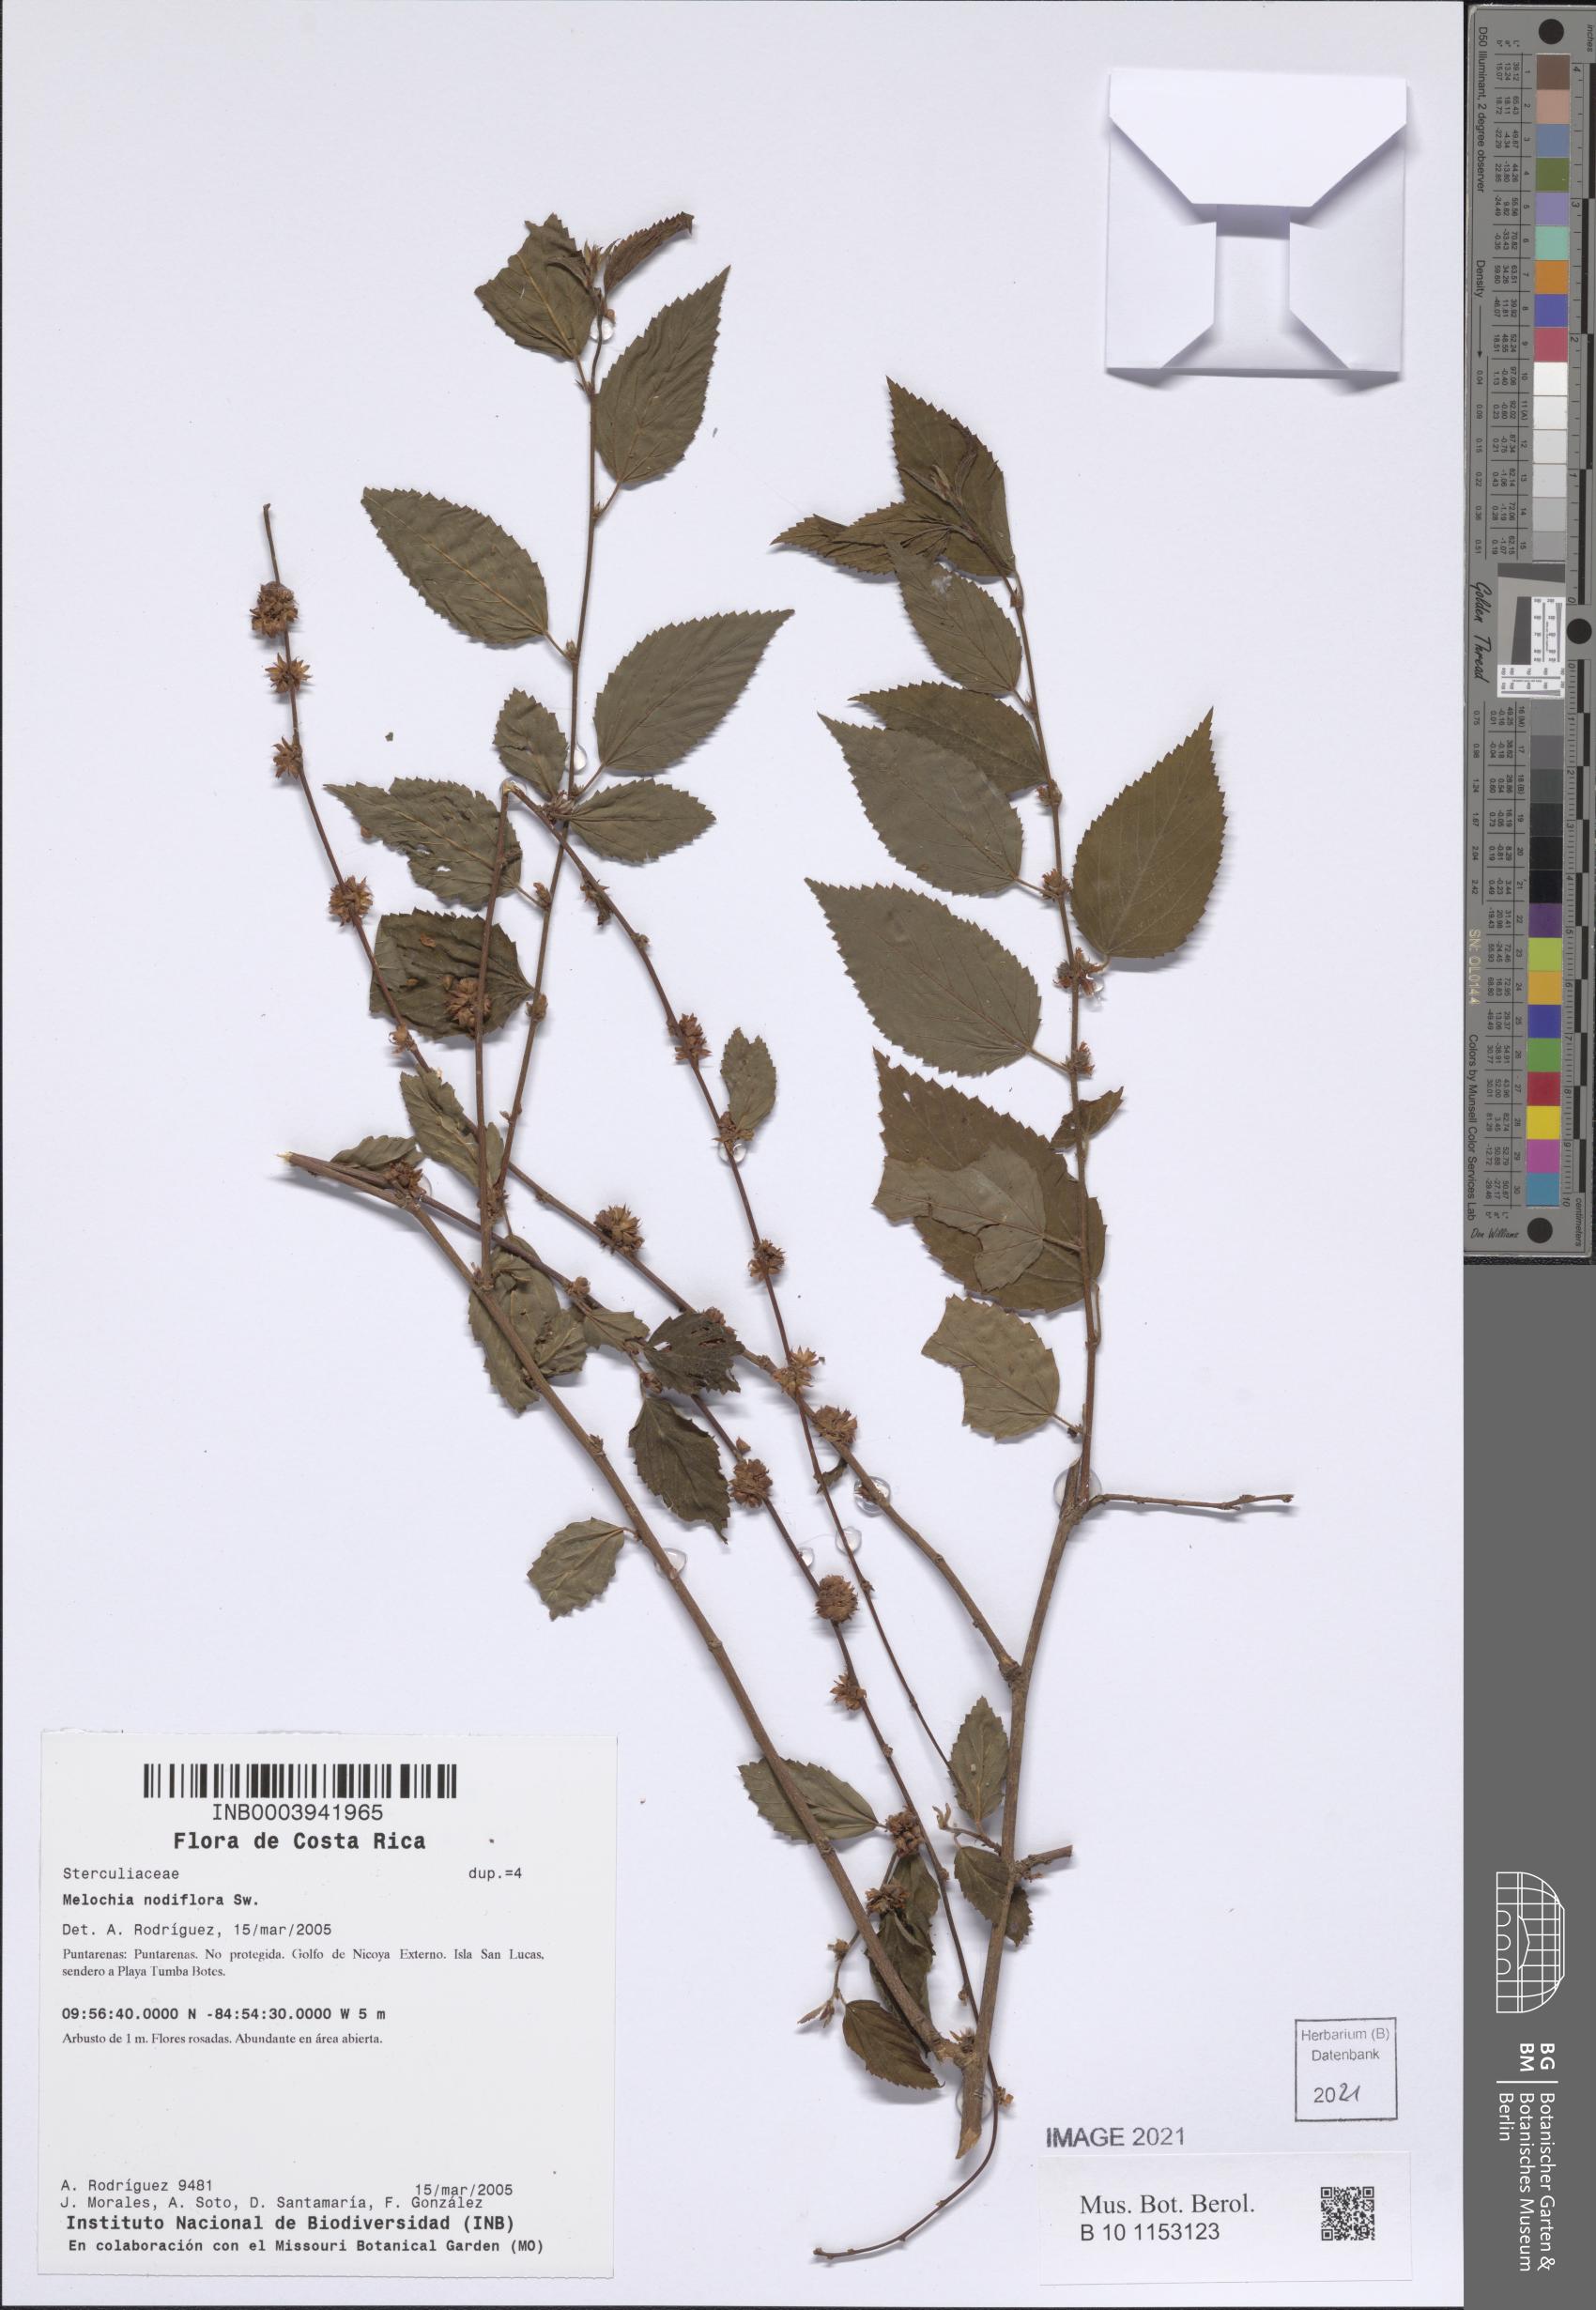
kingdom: Plantae
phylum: Tracheophyta
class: Magnoliopsida
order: Malvales
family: Malvaceae
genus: Melochia
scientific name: Melochia nodiflora
